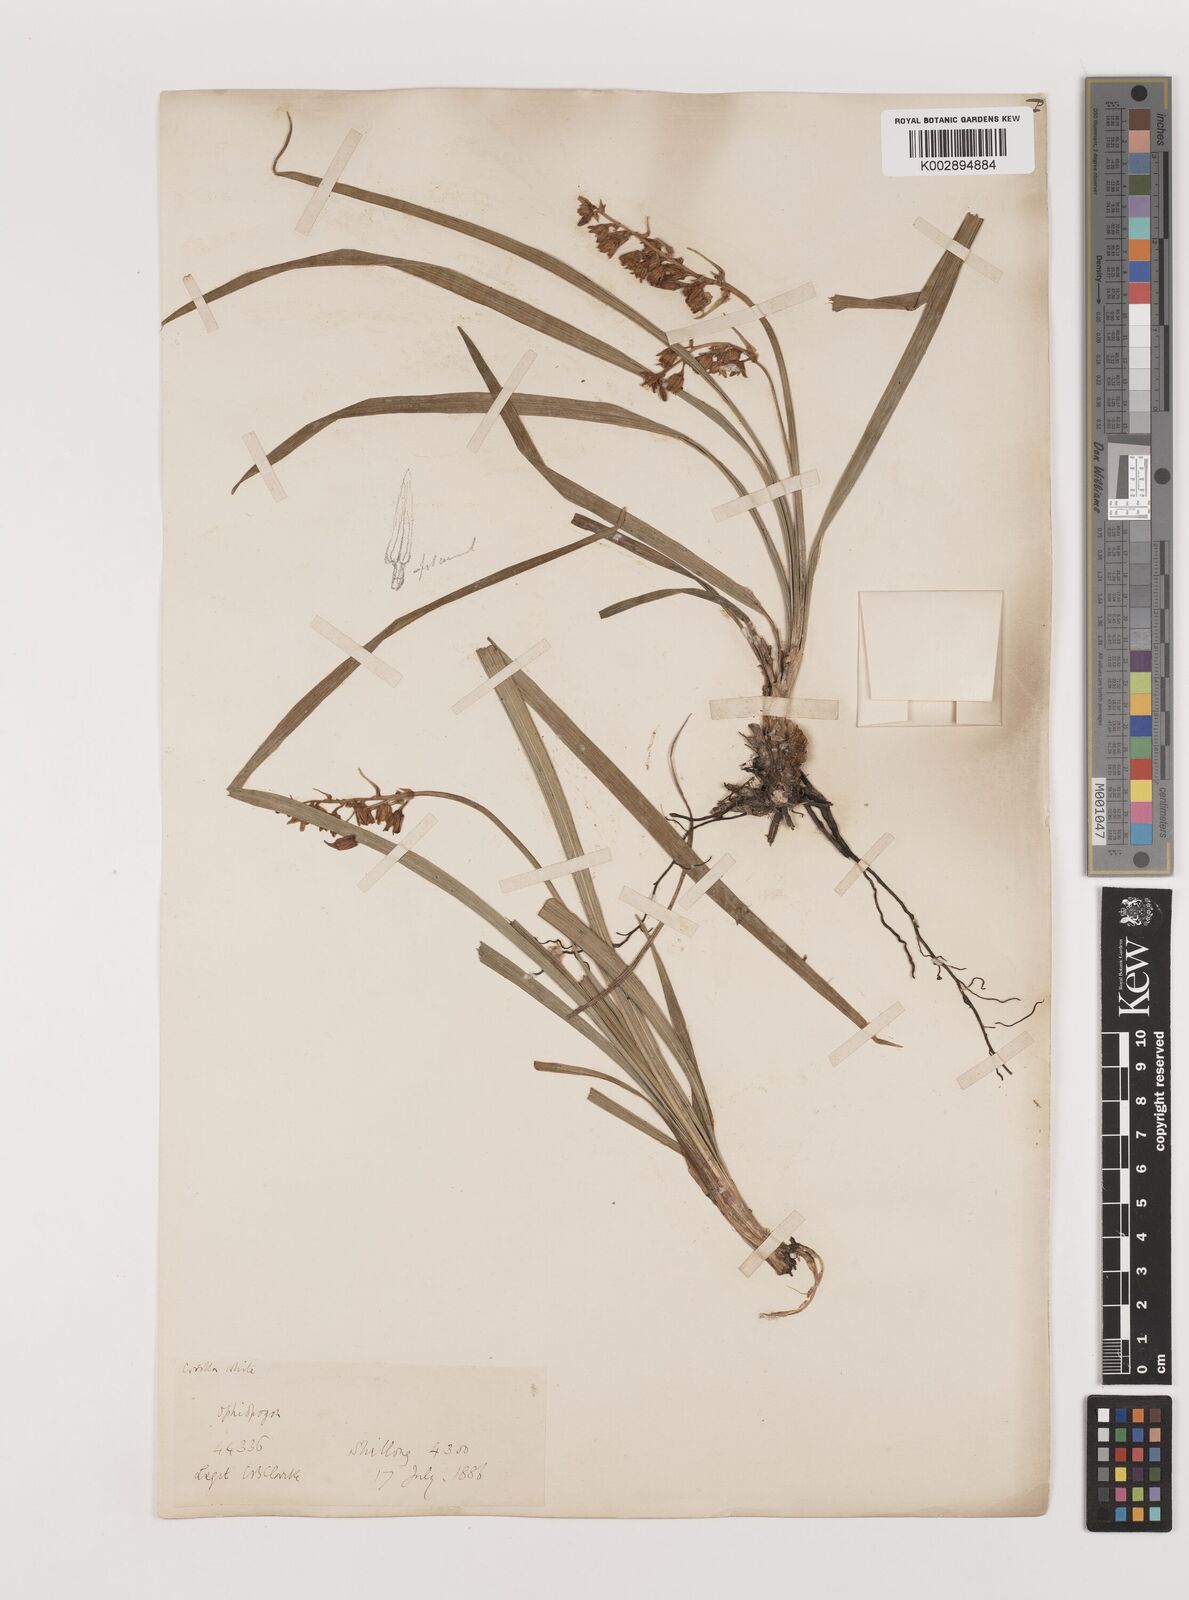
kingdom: Plantae
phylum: Tracheophyta
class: Liliopsida
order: Asparagales
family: Asparagaceae
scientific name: Asparagaceae
